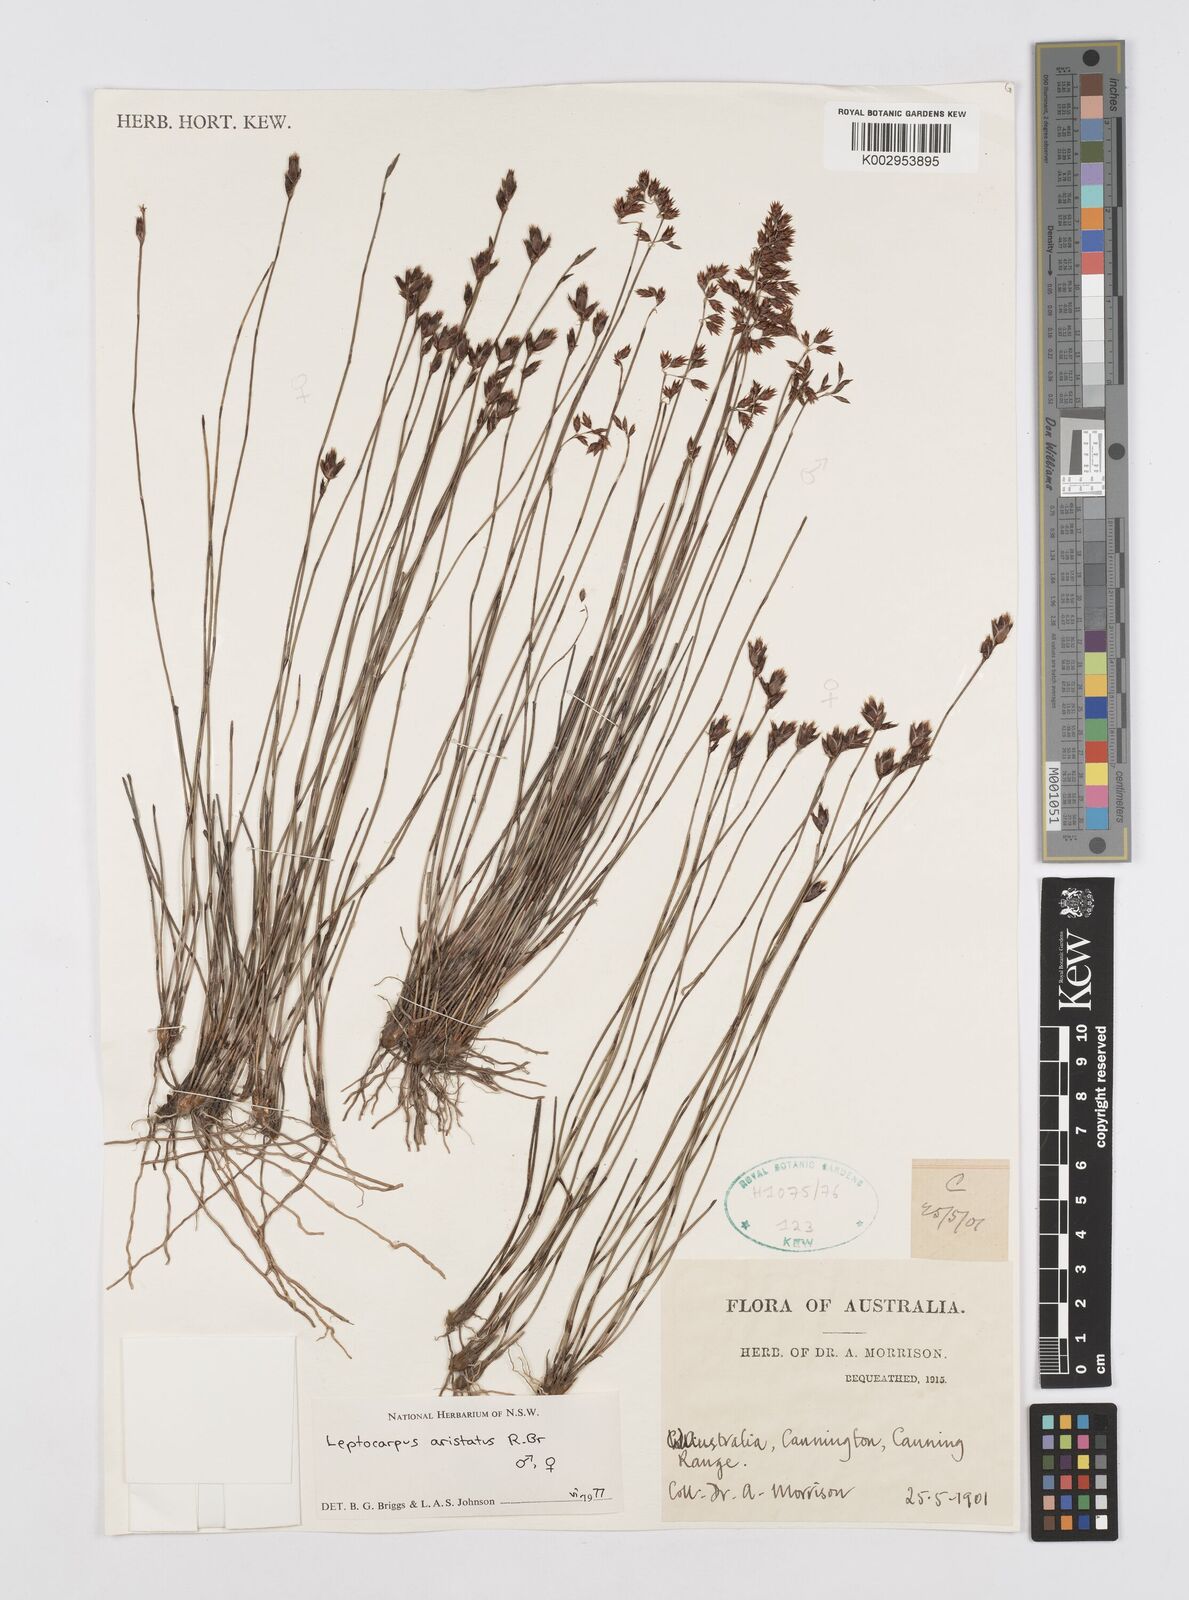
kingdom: Plantae
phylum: Tracheophyta
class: Liliopsida
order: Poales
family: Restionaceae
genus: Chaetanthus
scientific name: Chaetanthus aristatus
